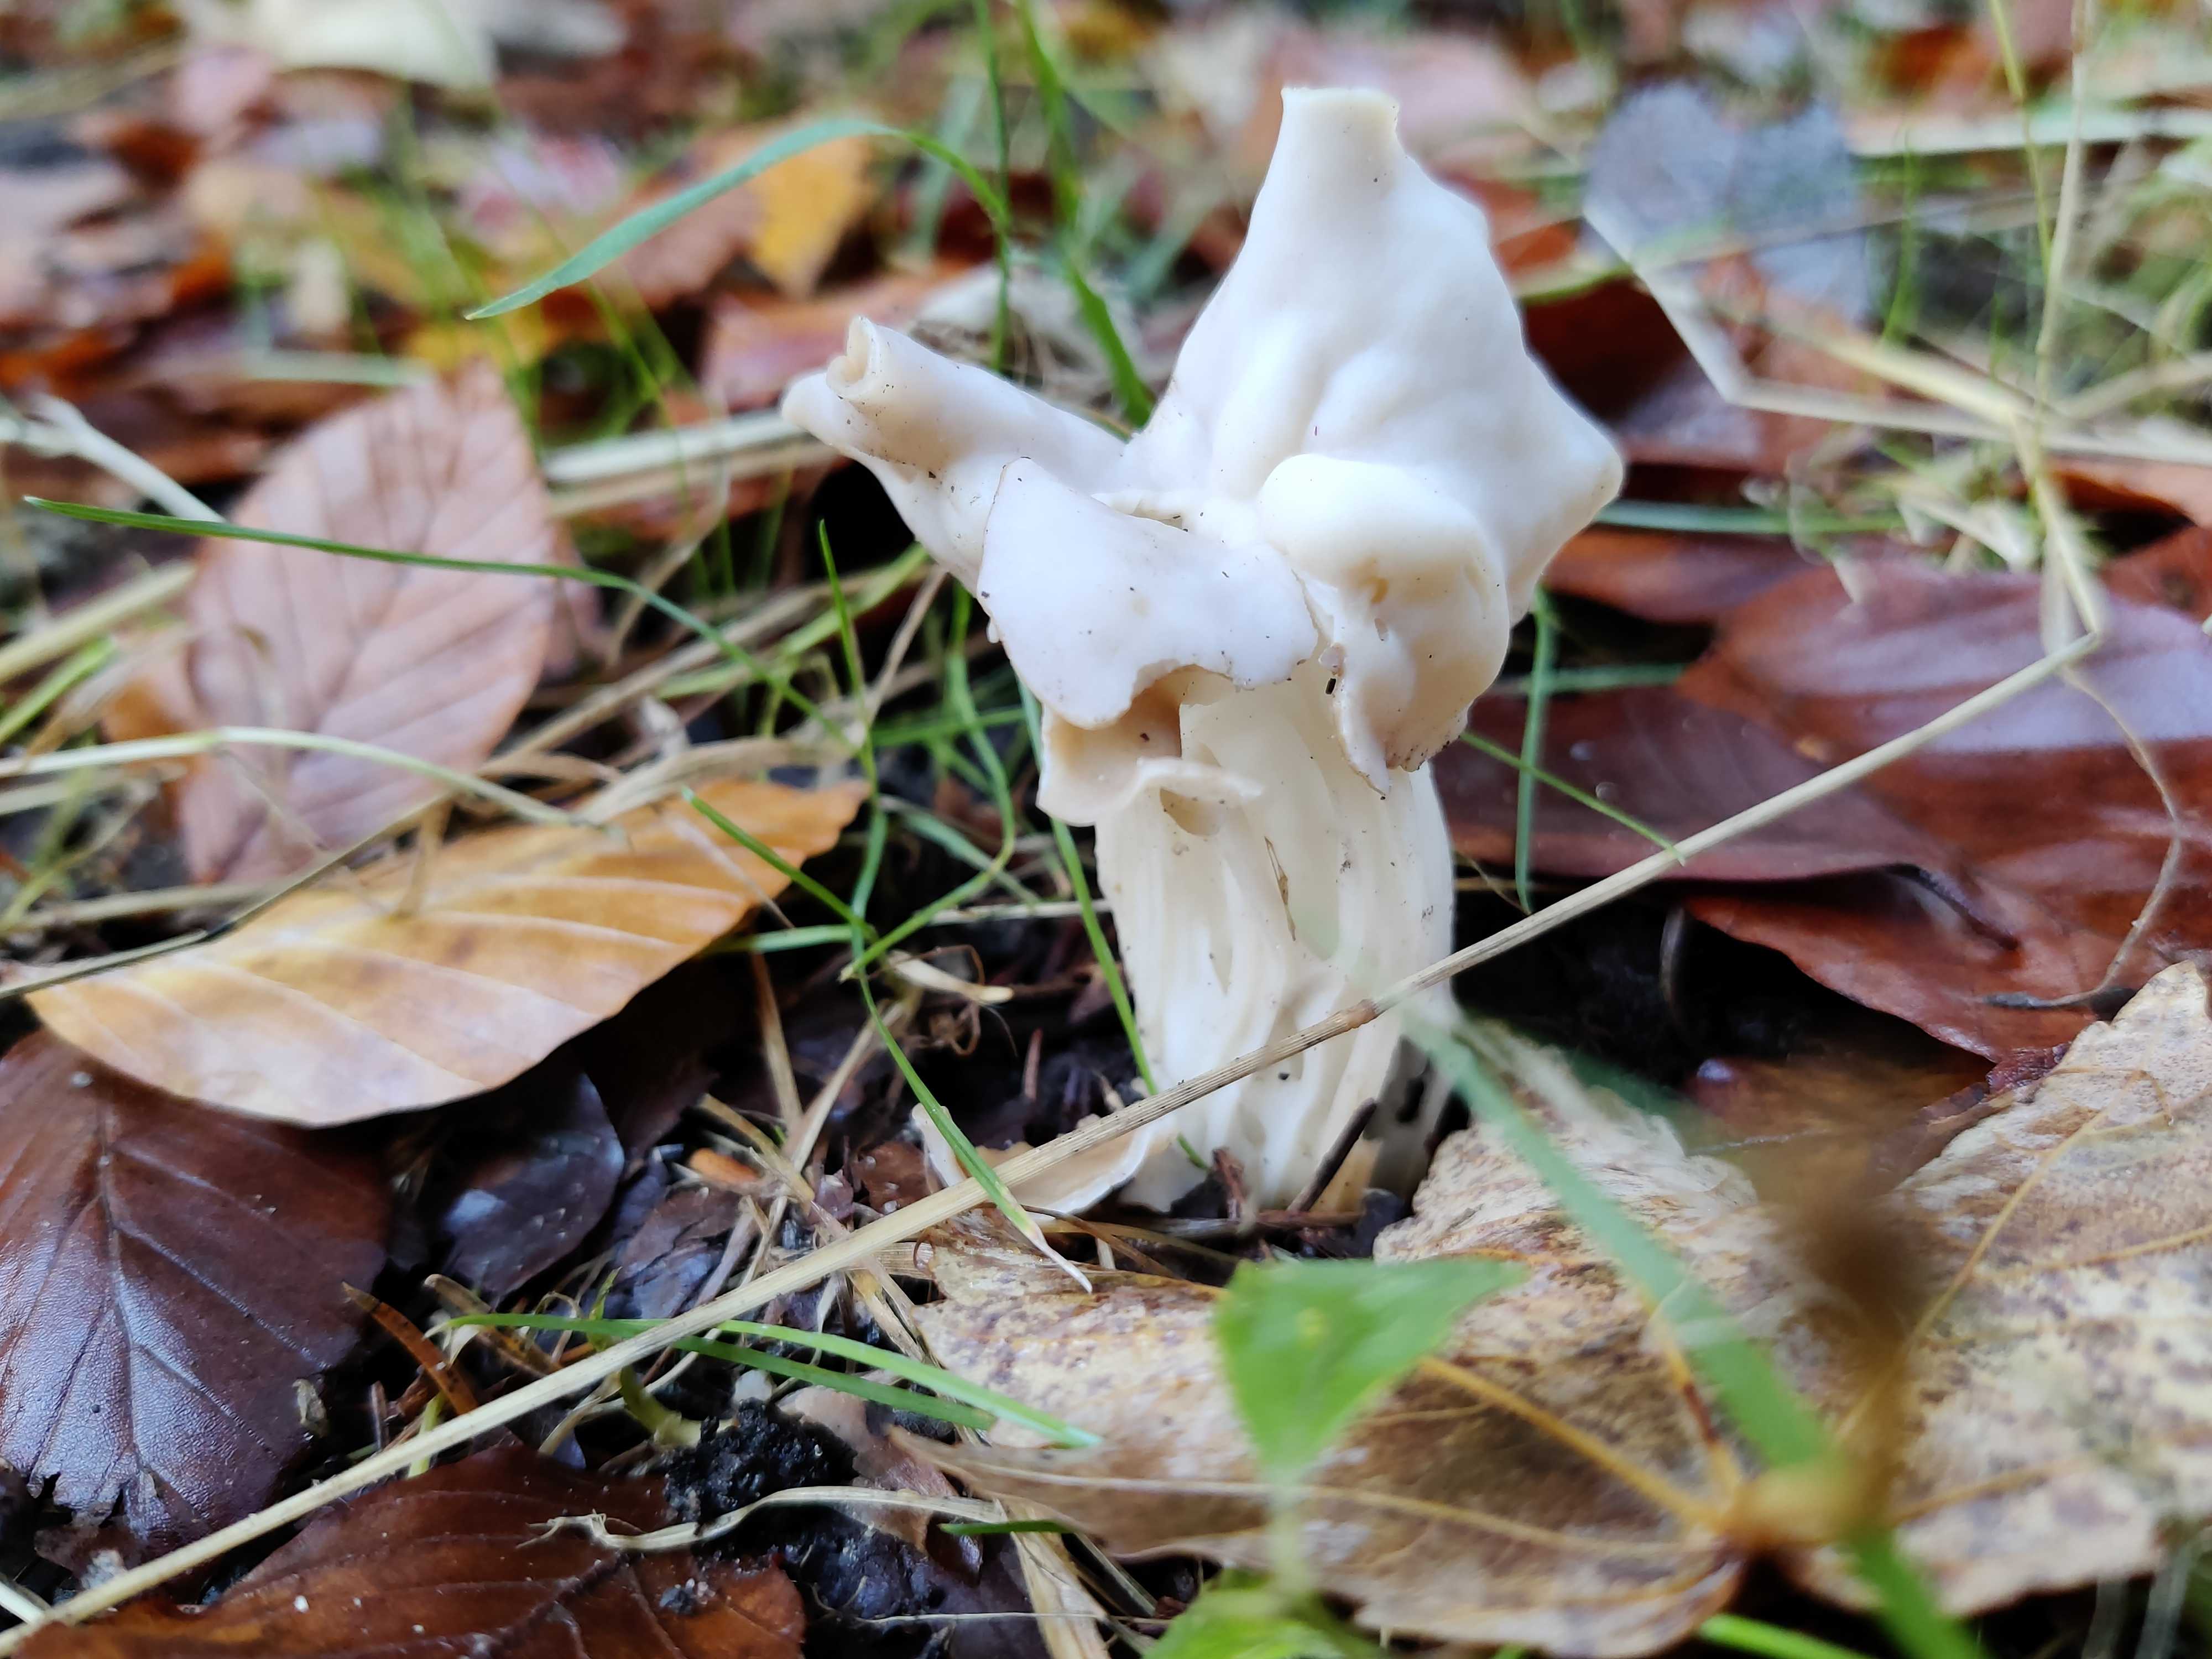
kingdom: Fungi
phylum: Ascomycota
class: Pezizomycetes
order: Pezizales
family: Helvellaceae
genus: Helvella
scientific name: Helvella crispa
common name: kruset foldhat
